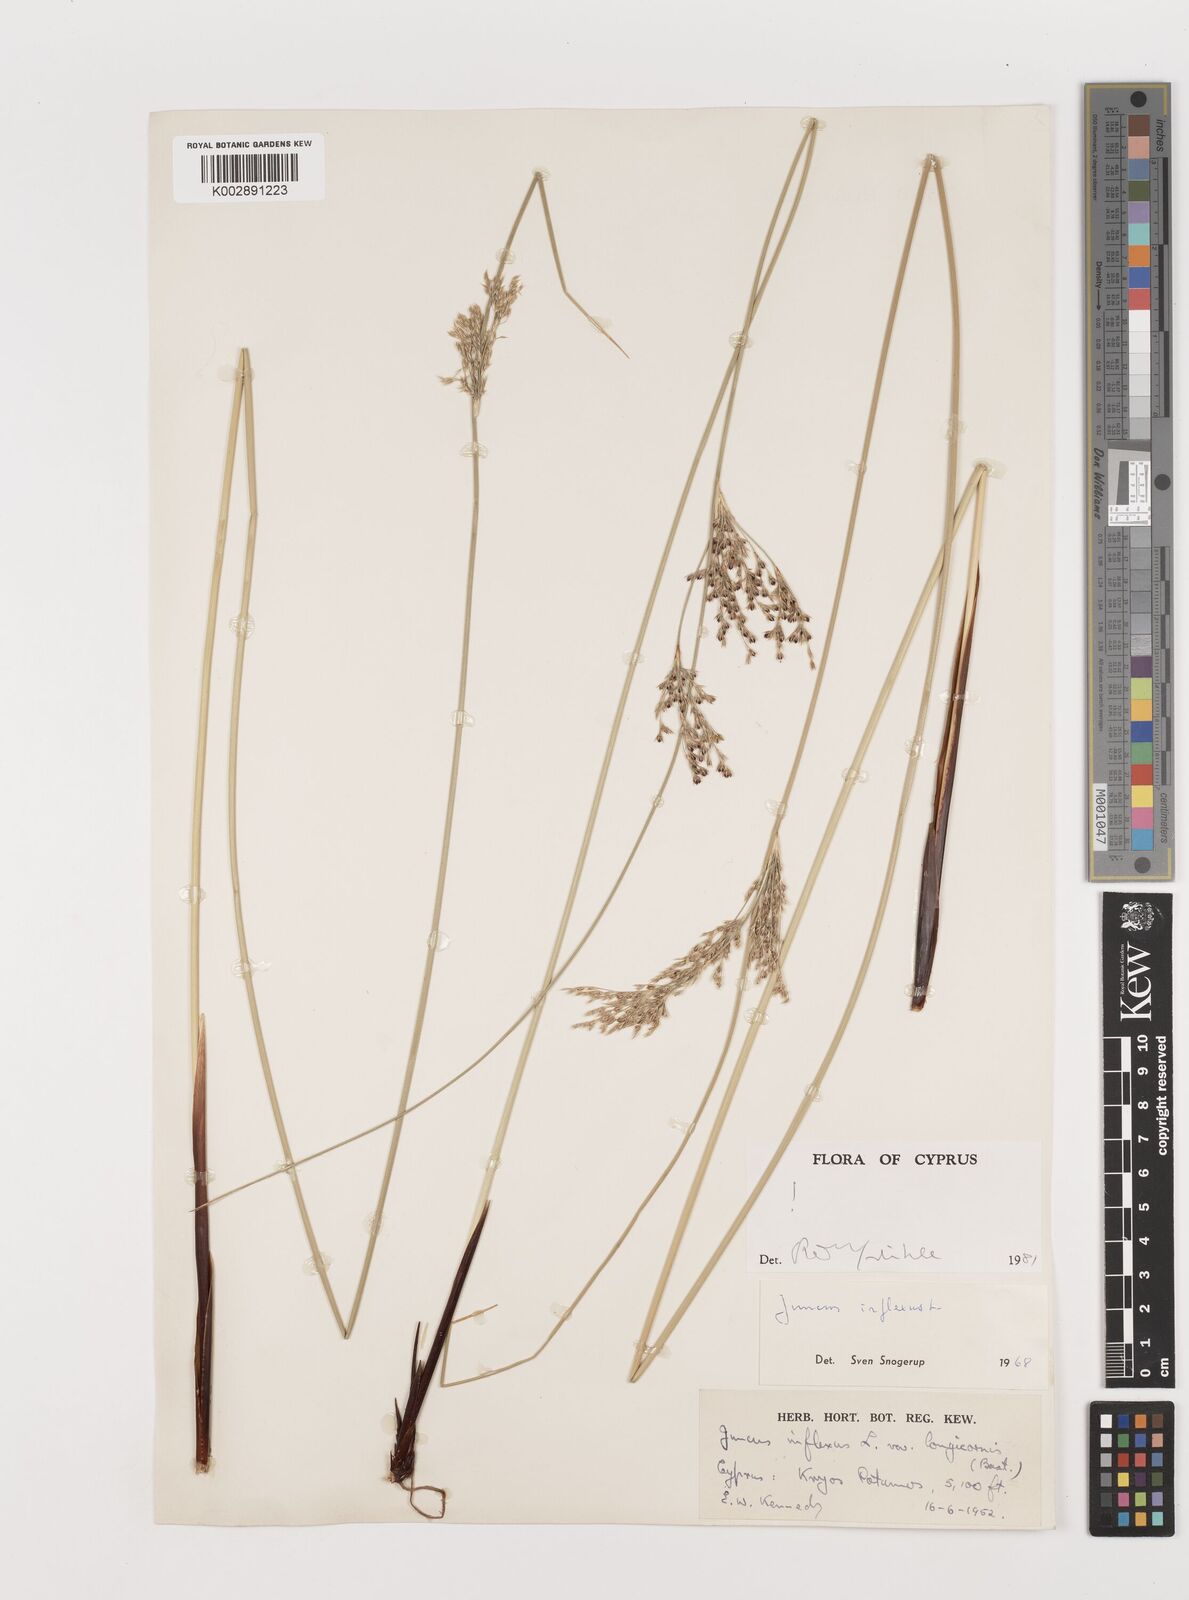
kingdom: Plantae
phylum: Tracheophyta
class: Liliopsida
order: Poales
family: Juncaceae
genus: Juncus
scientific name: Juncus inflexus
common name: Hard rush
